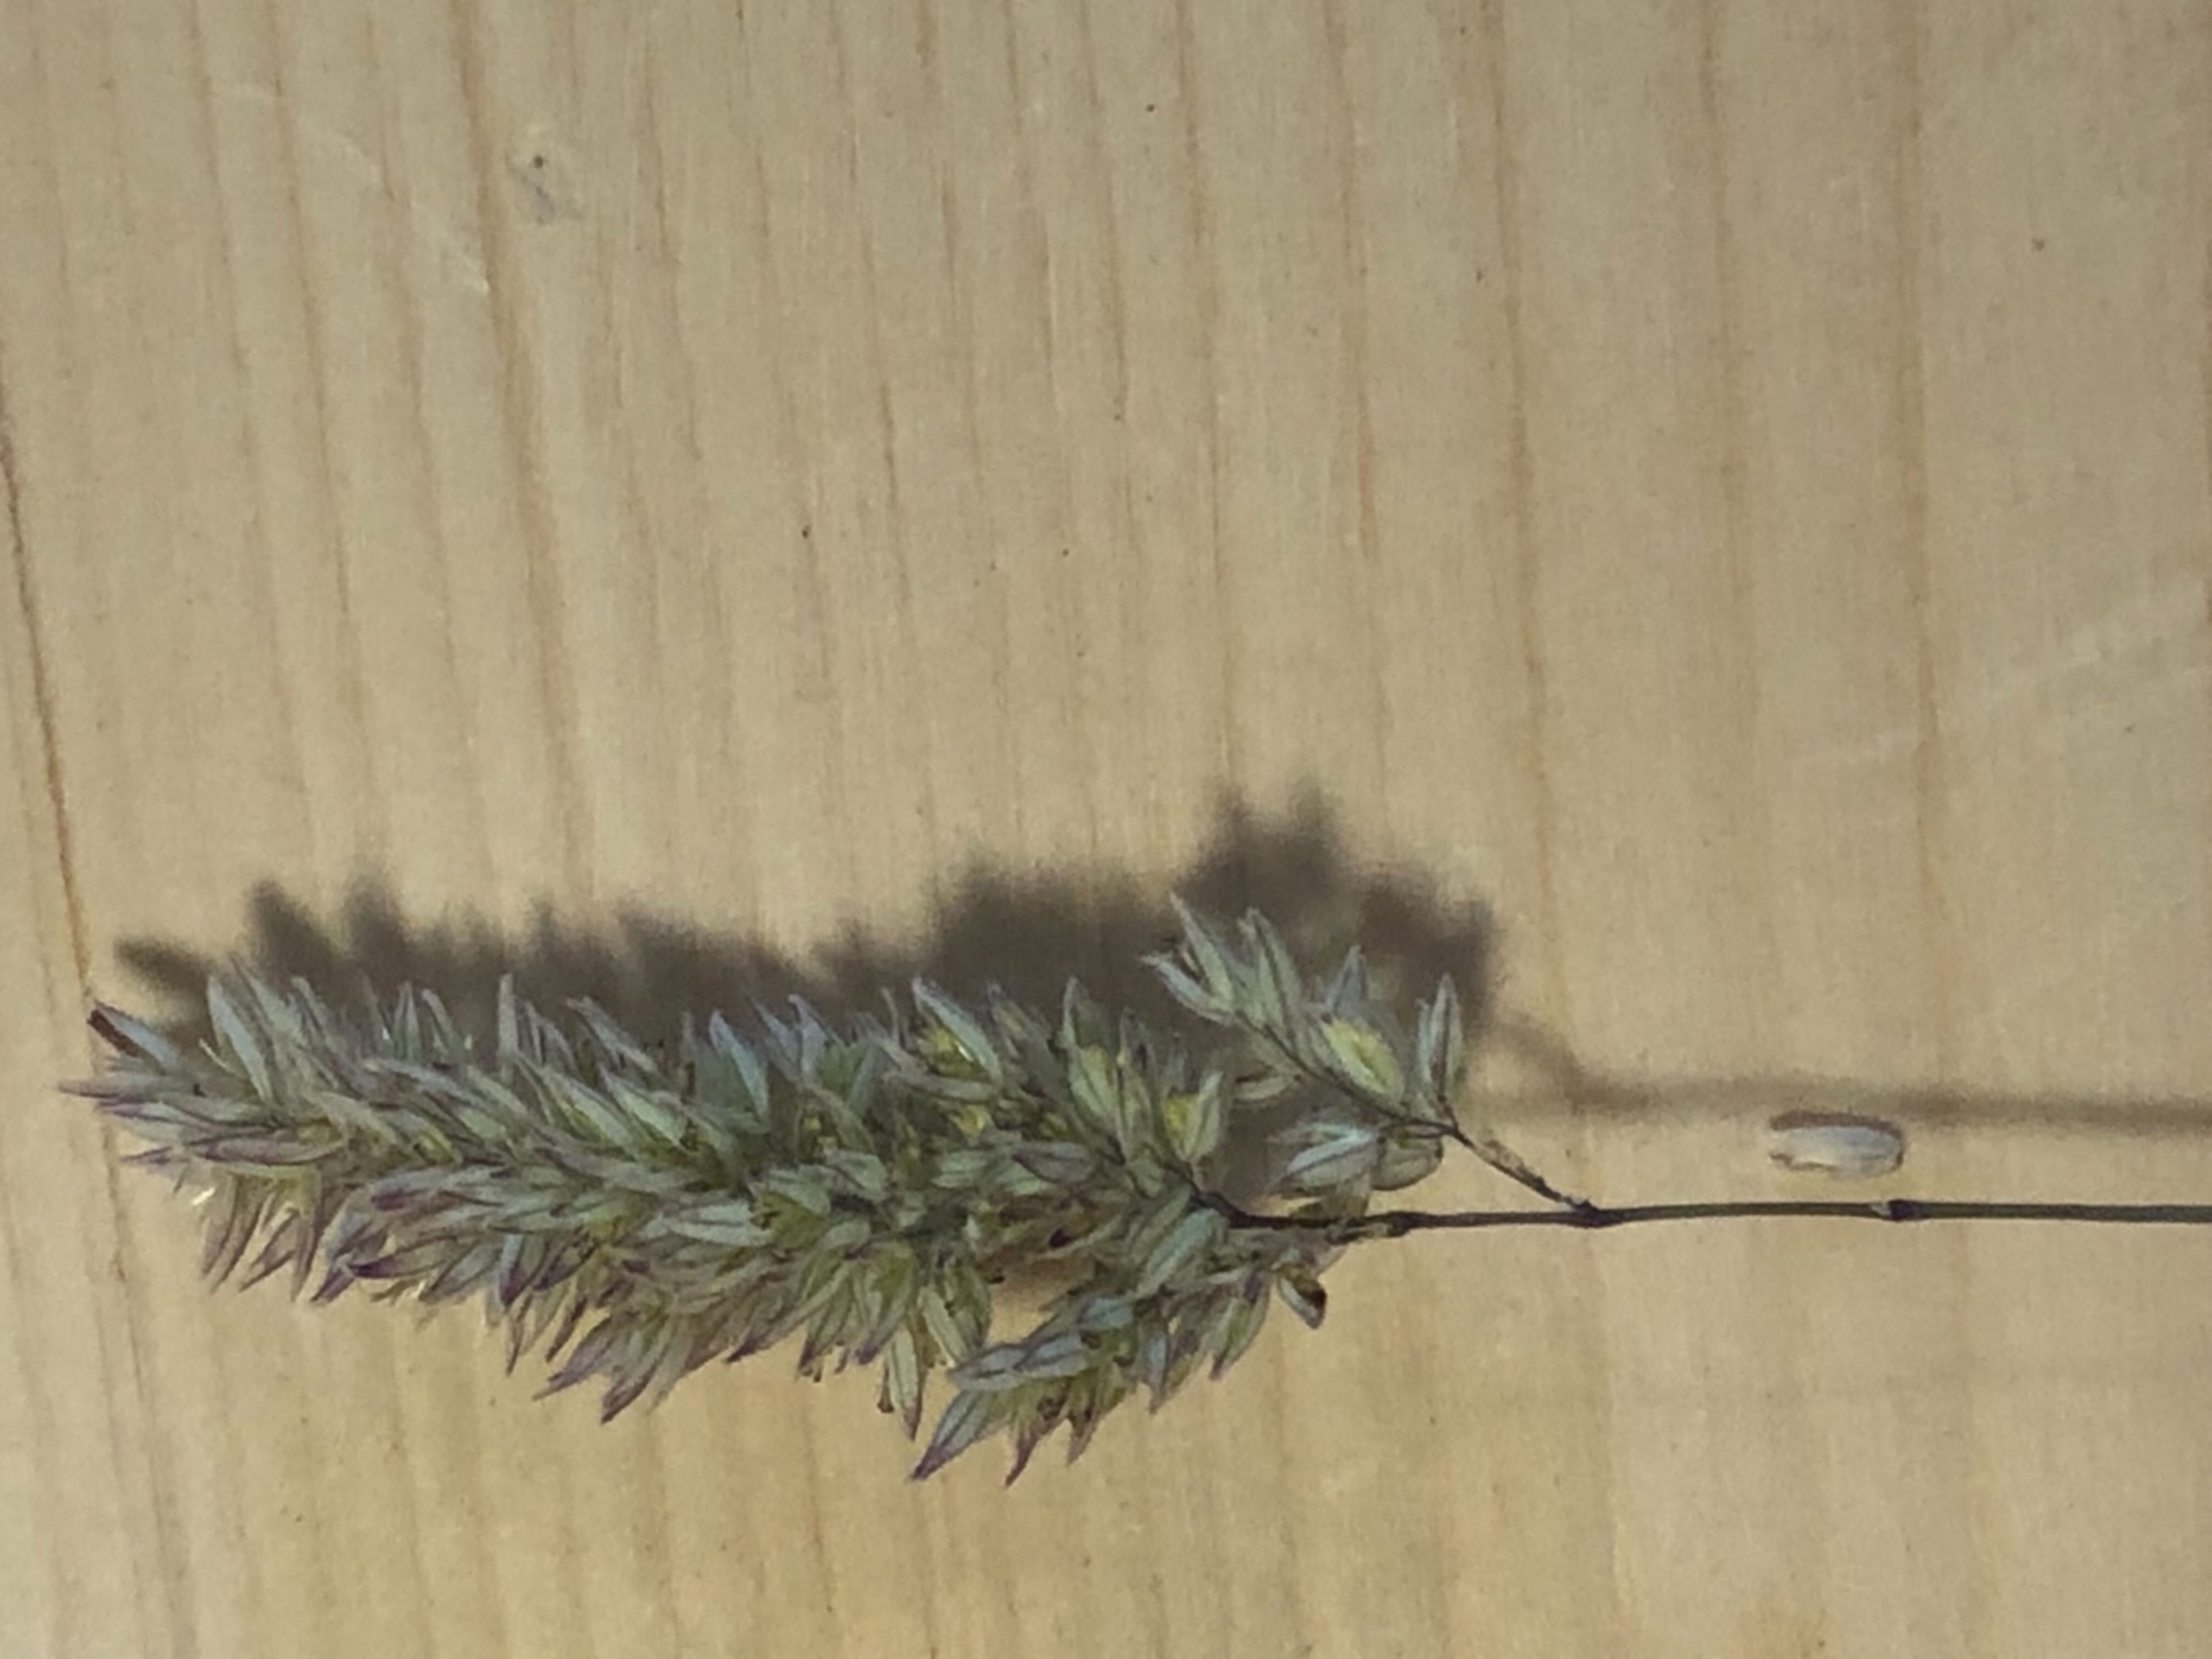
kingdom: Plantae
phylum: Tracheophyta
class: Liliopsida
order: Poales
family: Poaceae
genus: Holcus
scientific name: Holcus lanatus
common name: Fløjlsgræs
